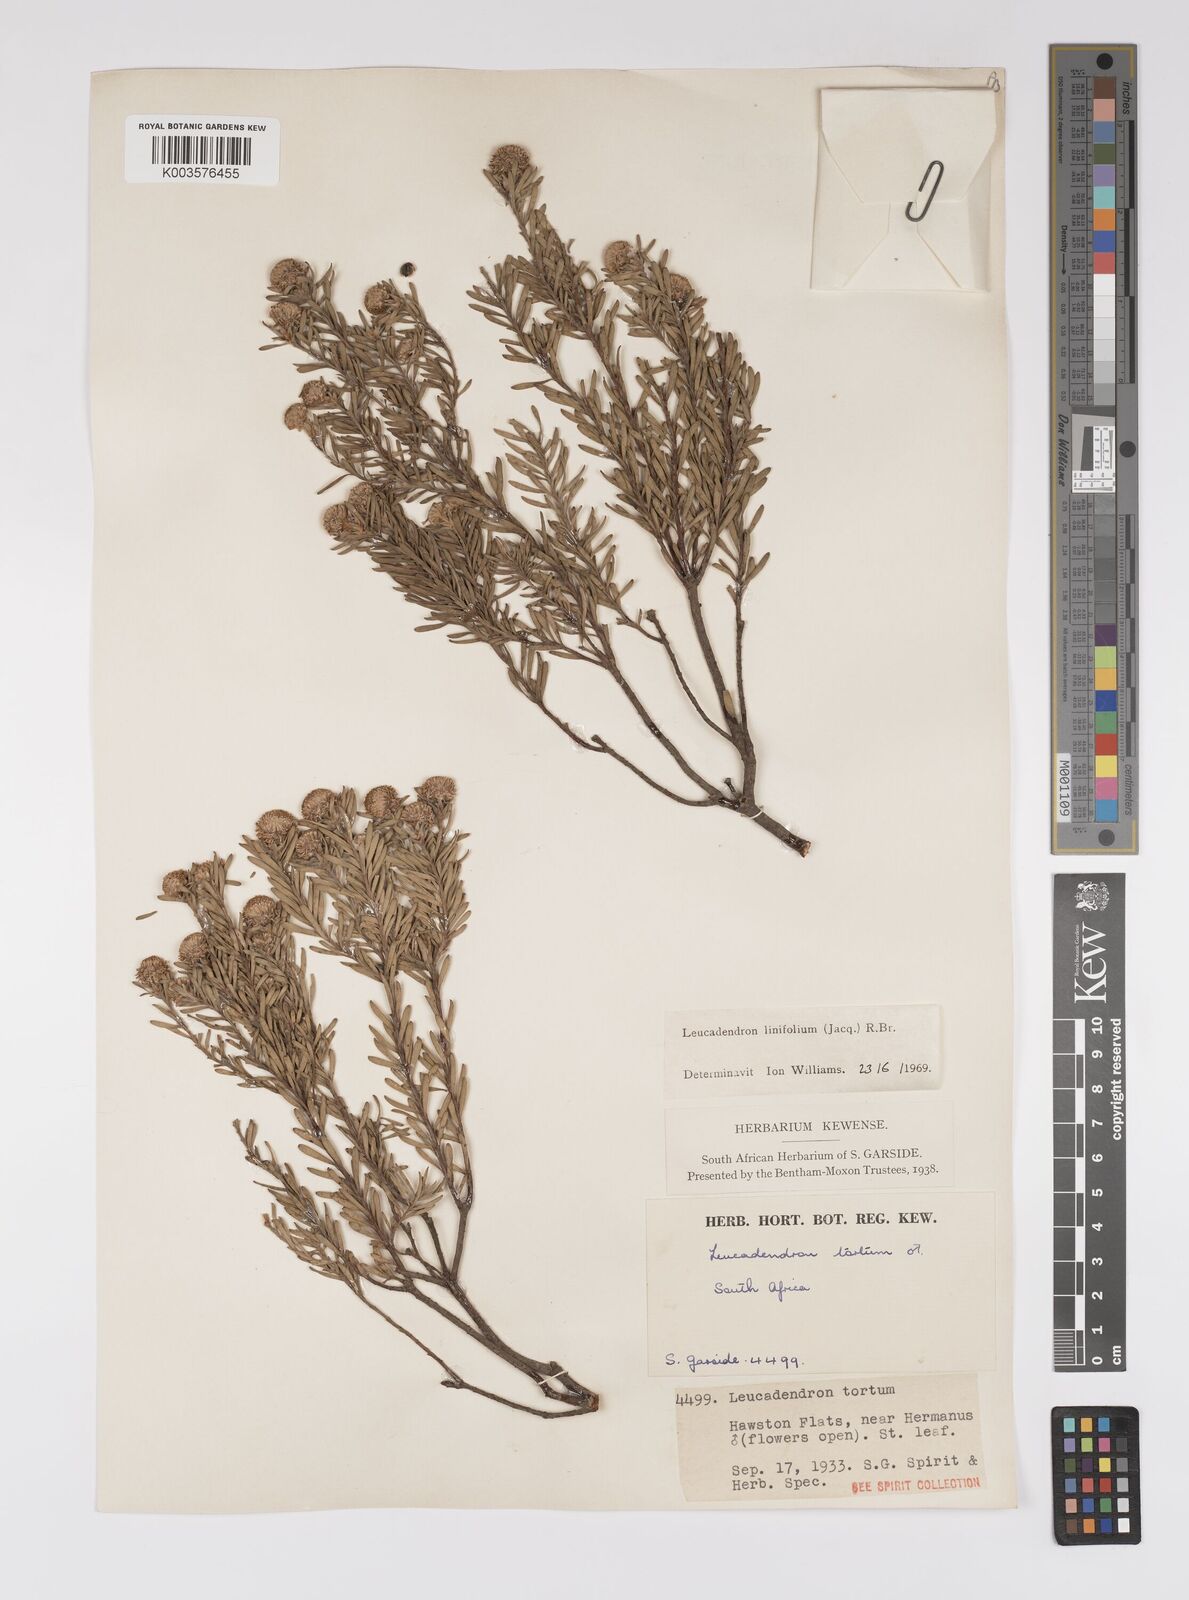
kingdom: Plantae
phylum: Tracheophyta
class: Magnoliopsida
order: Proteales
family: Proteaceae
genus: Leucadendron
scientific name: Leucadendron linifolium
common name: Line-leaf conebush
